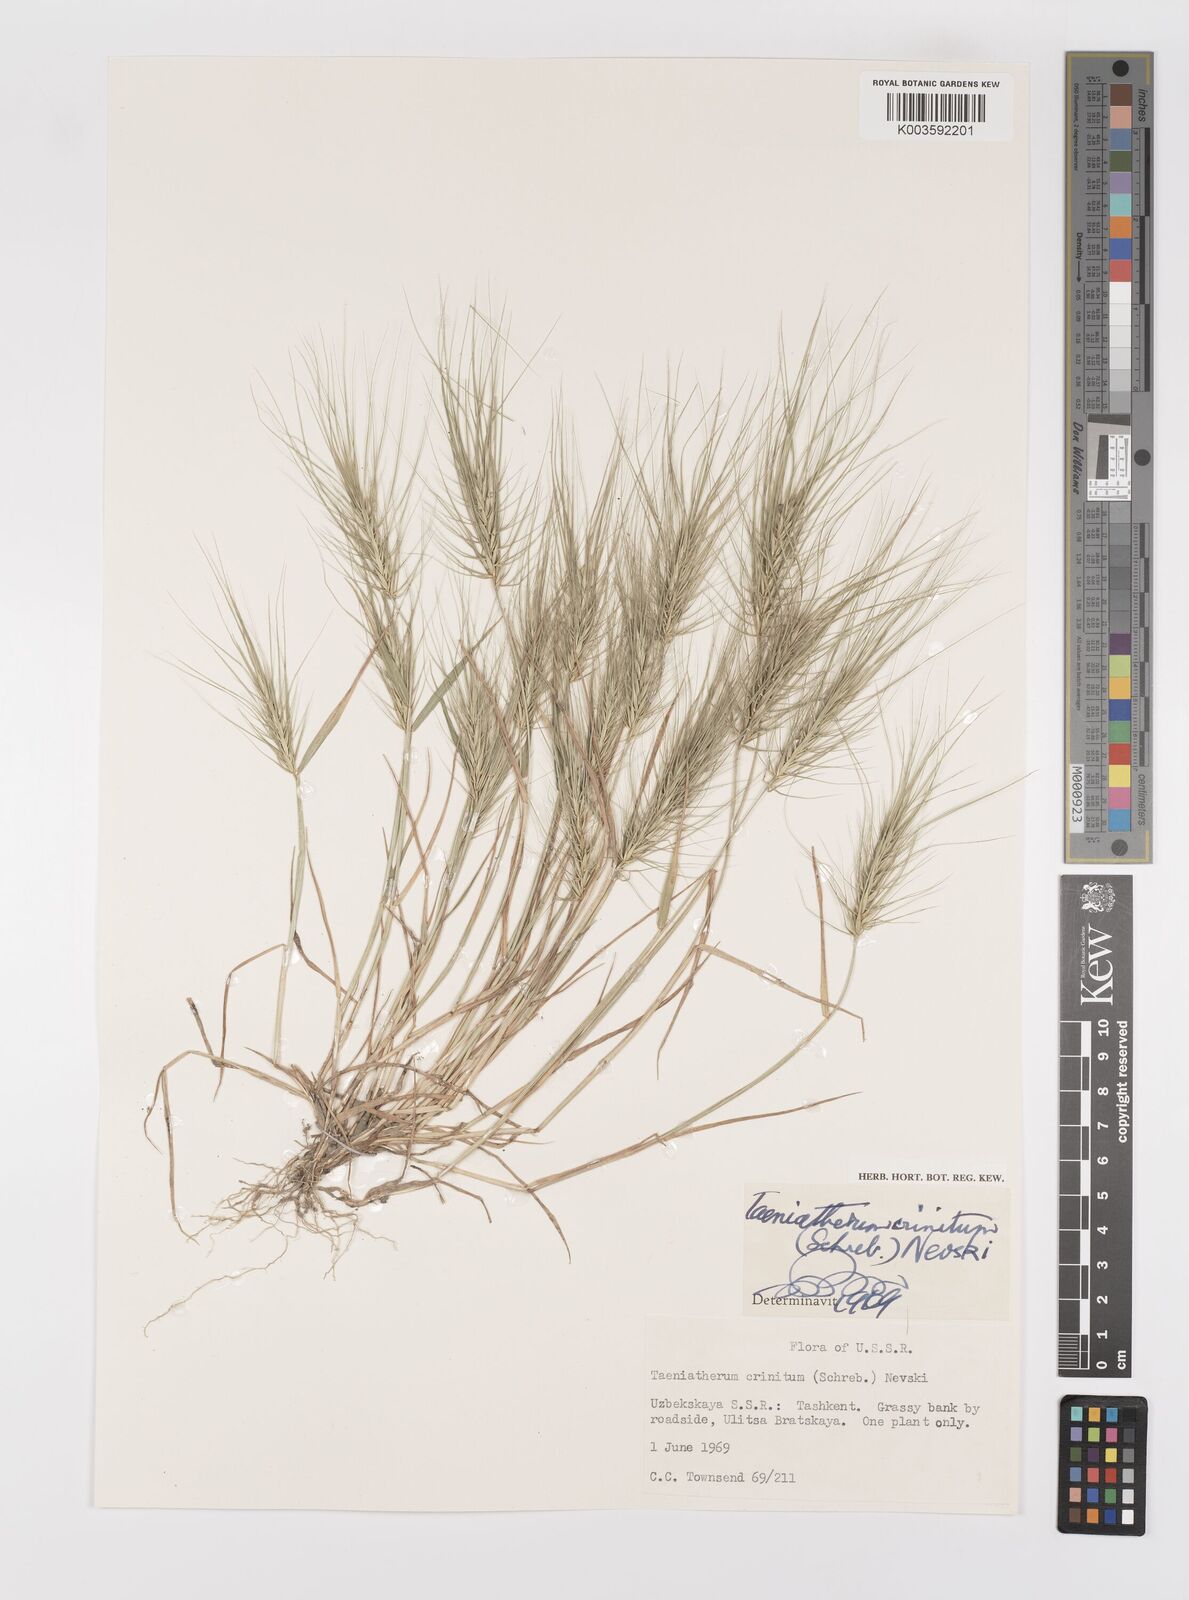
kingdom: Plantae
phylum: Tracheophyta
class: Liliopsida
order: Poales
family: Poaceae
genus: Taeniatherum
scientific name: Taeniatherum caput-medusae
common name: Medusahead
